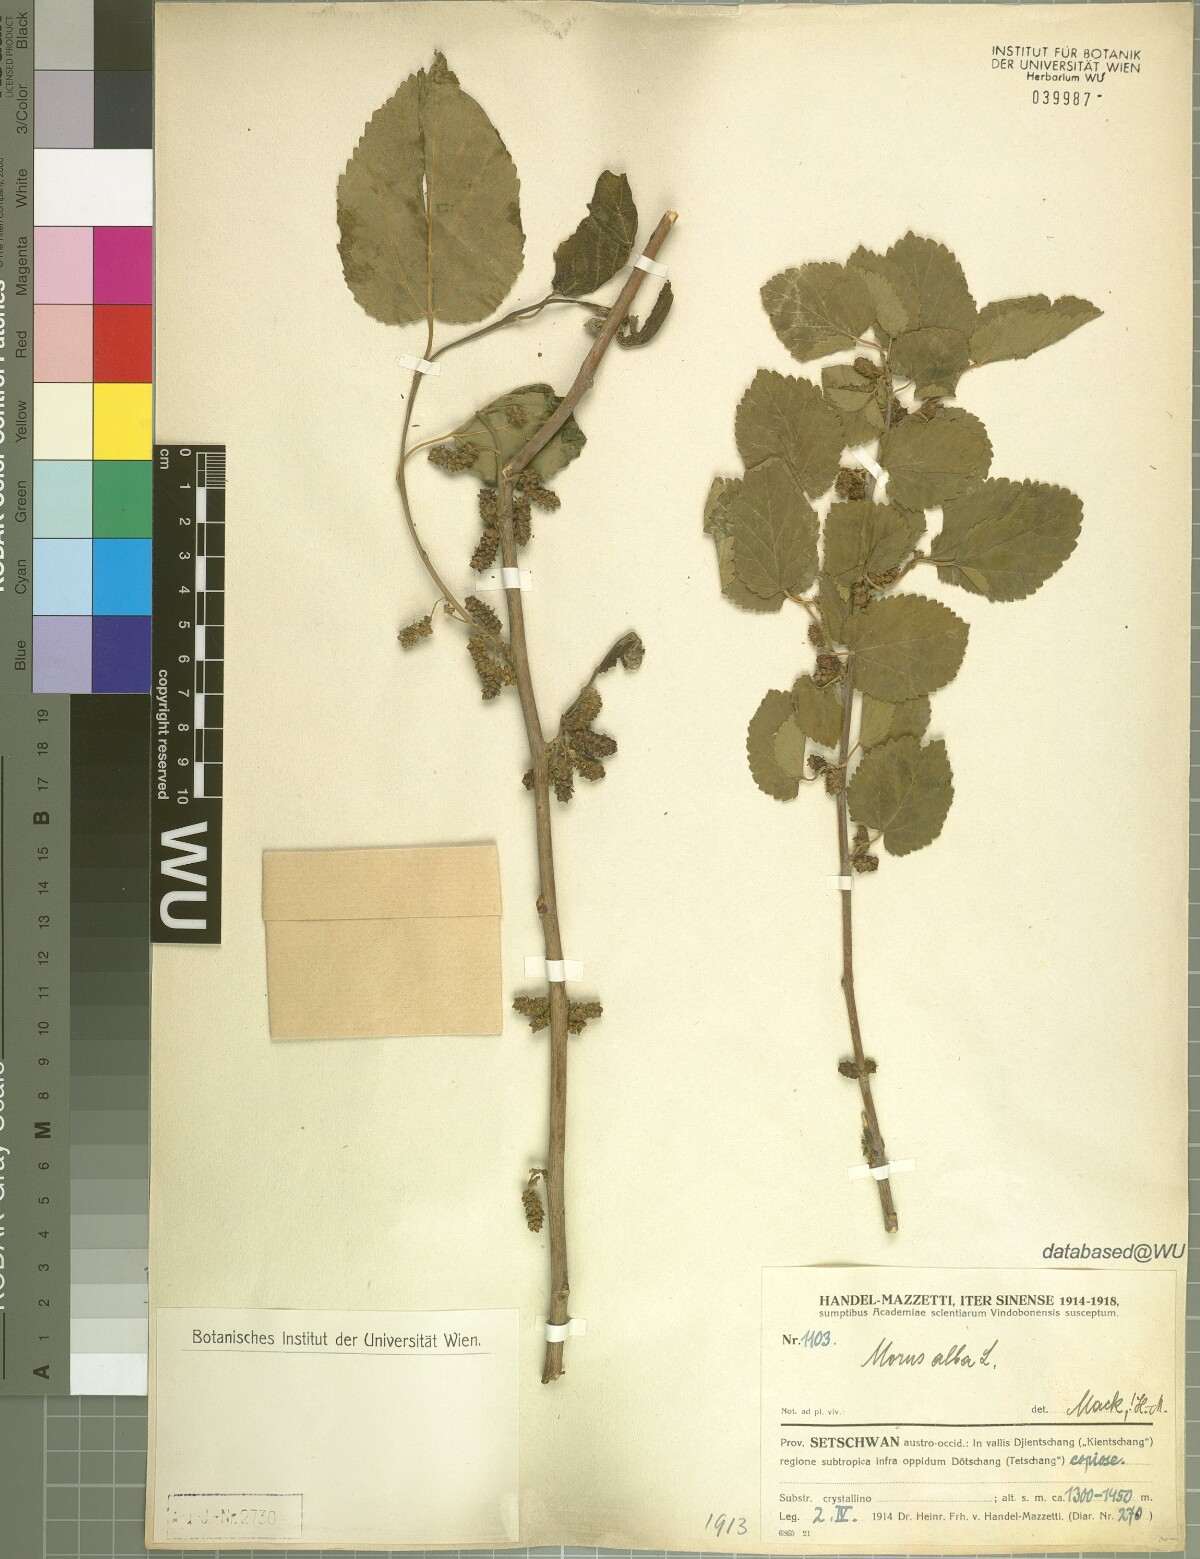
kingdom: Plantae
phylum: Tracheophyta
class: Magnoliopsida
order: Rosales
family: Moraceae
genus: Morus
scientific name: Morus alba
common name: White mulberry
